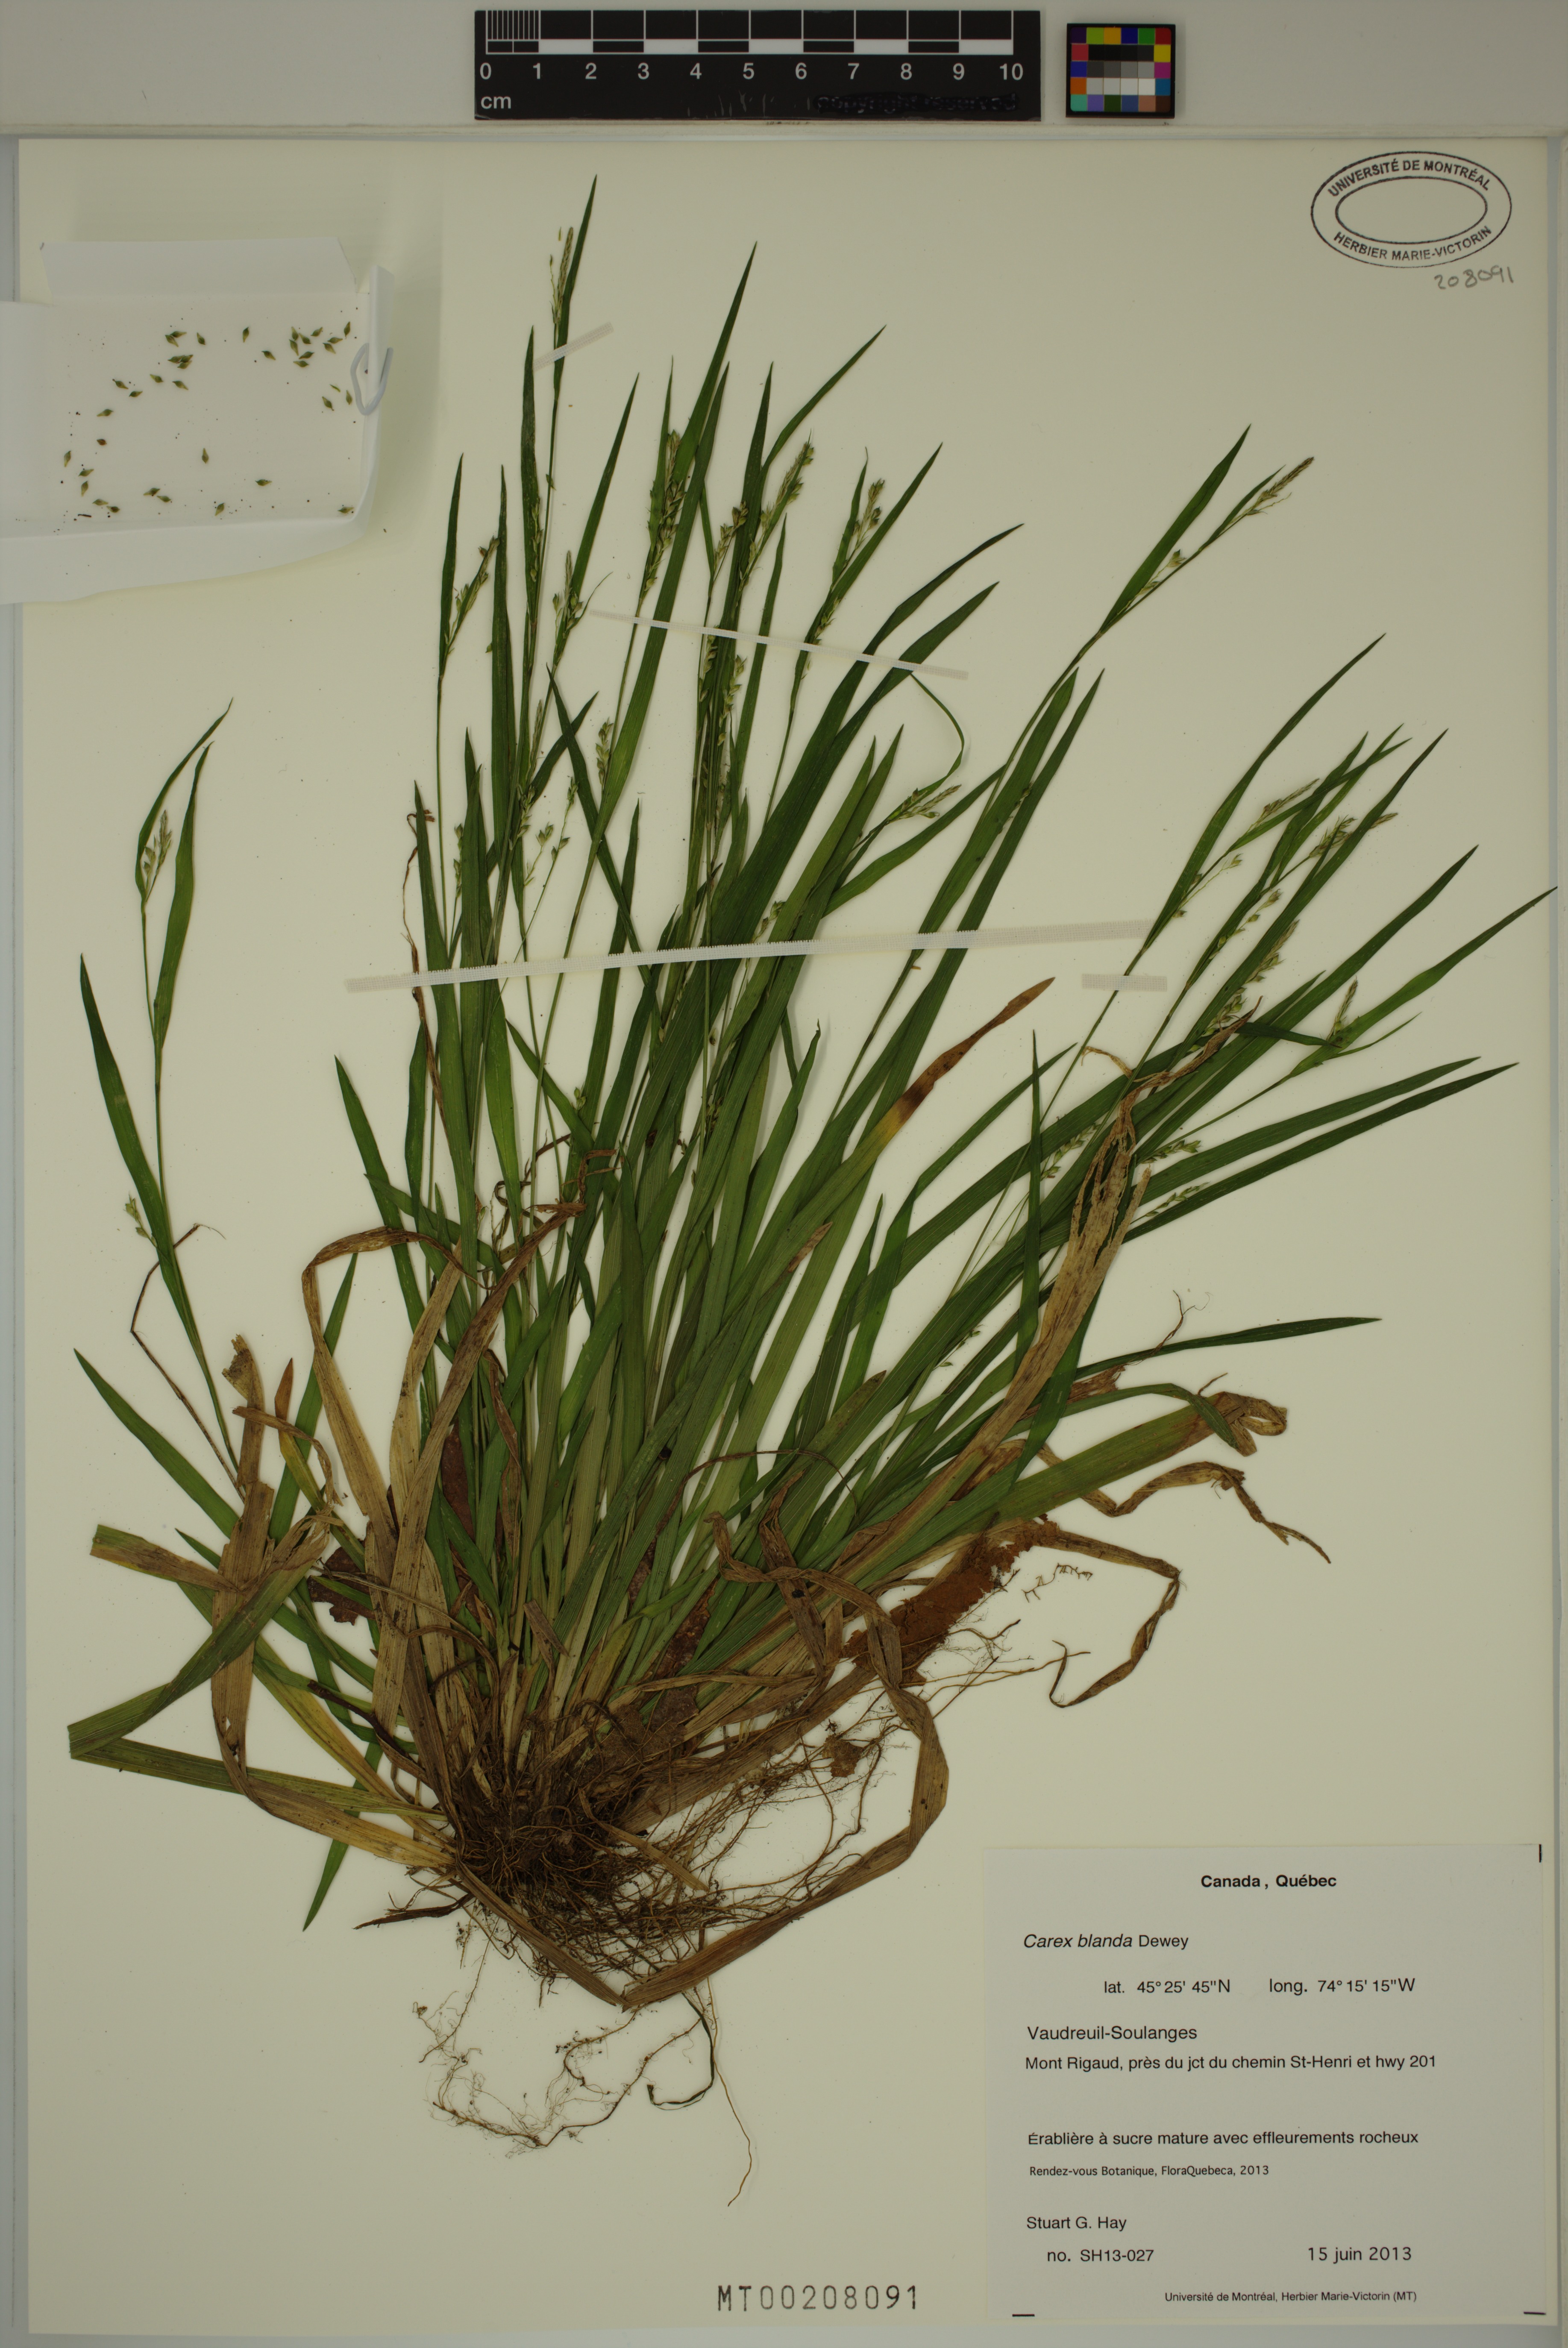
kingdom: Plantae
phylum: Tracheophyta
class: Liliopsida
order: Poales
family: Cyperaceae
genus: Carex
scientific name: Carex blanda
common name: Bland sedge
